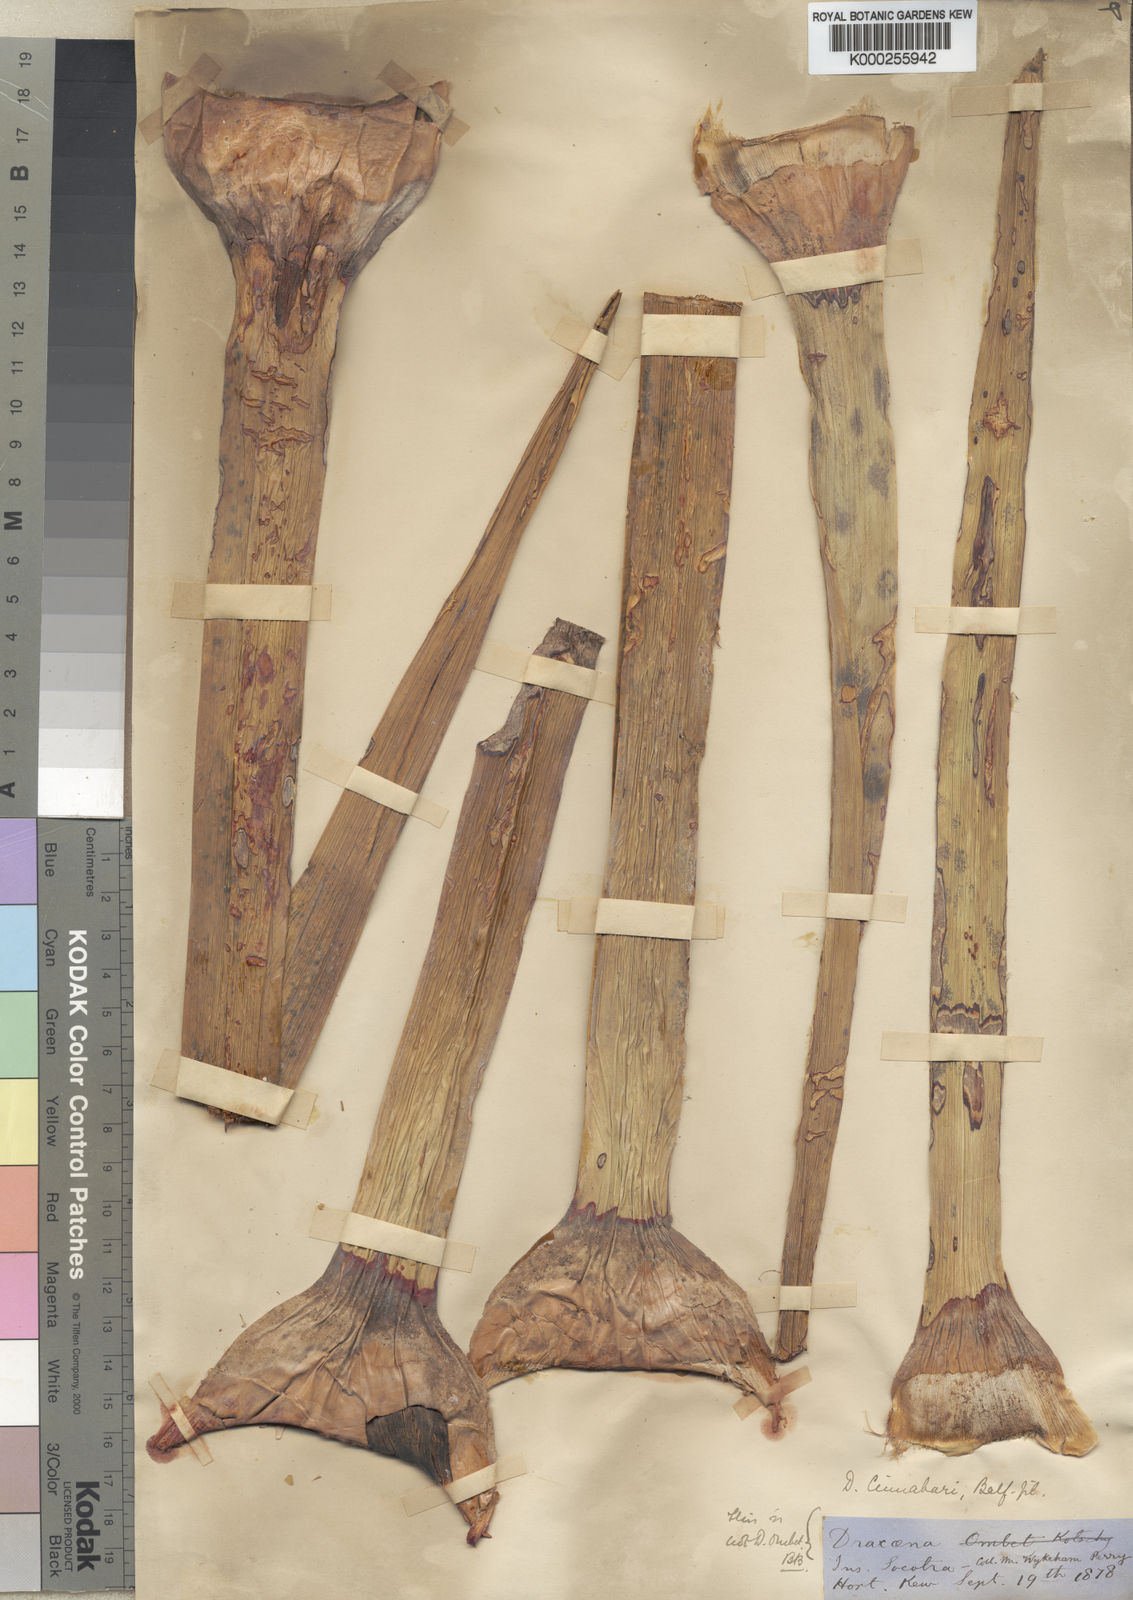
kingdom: Plantae
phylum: Tracheophyta
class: Liliopsida
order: Asparagales
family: Asparagaceae
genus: Dracaena
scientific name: Dracaena cinnabari
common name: Dragon's blood tree
